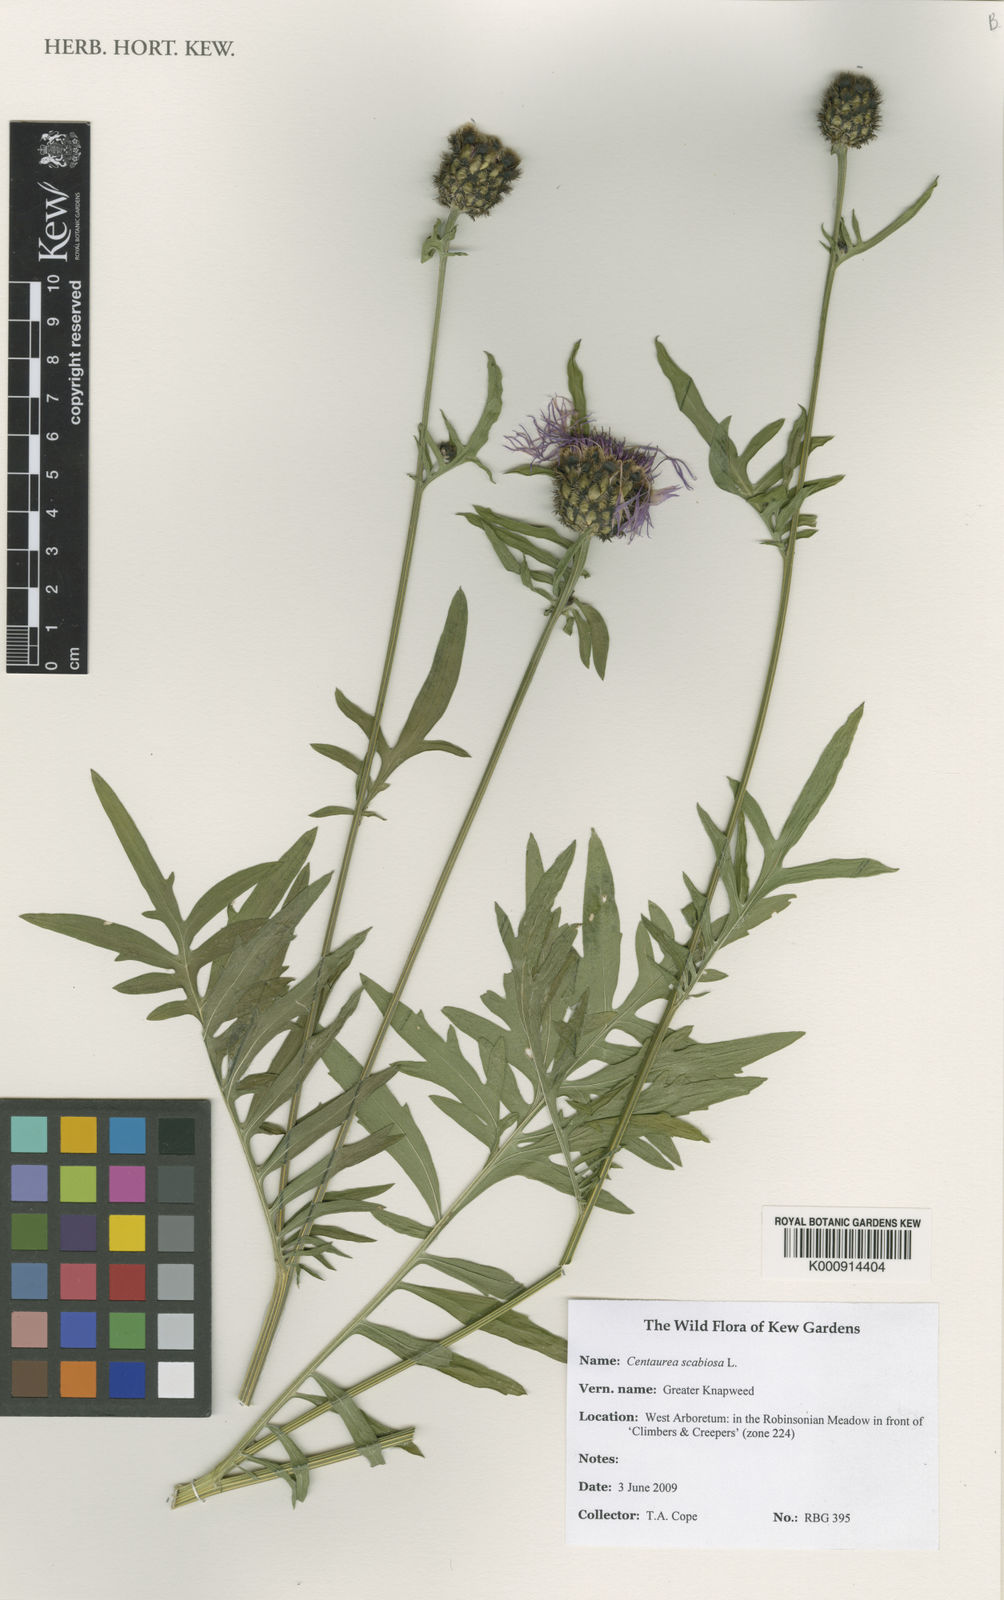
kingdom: Plantae
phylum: Tracheophyta
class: Magnoliopsida
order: Asterales
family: Asteraceae
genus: Centaurea
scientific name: Centaurea scabiosa
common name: Greater knapweed
